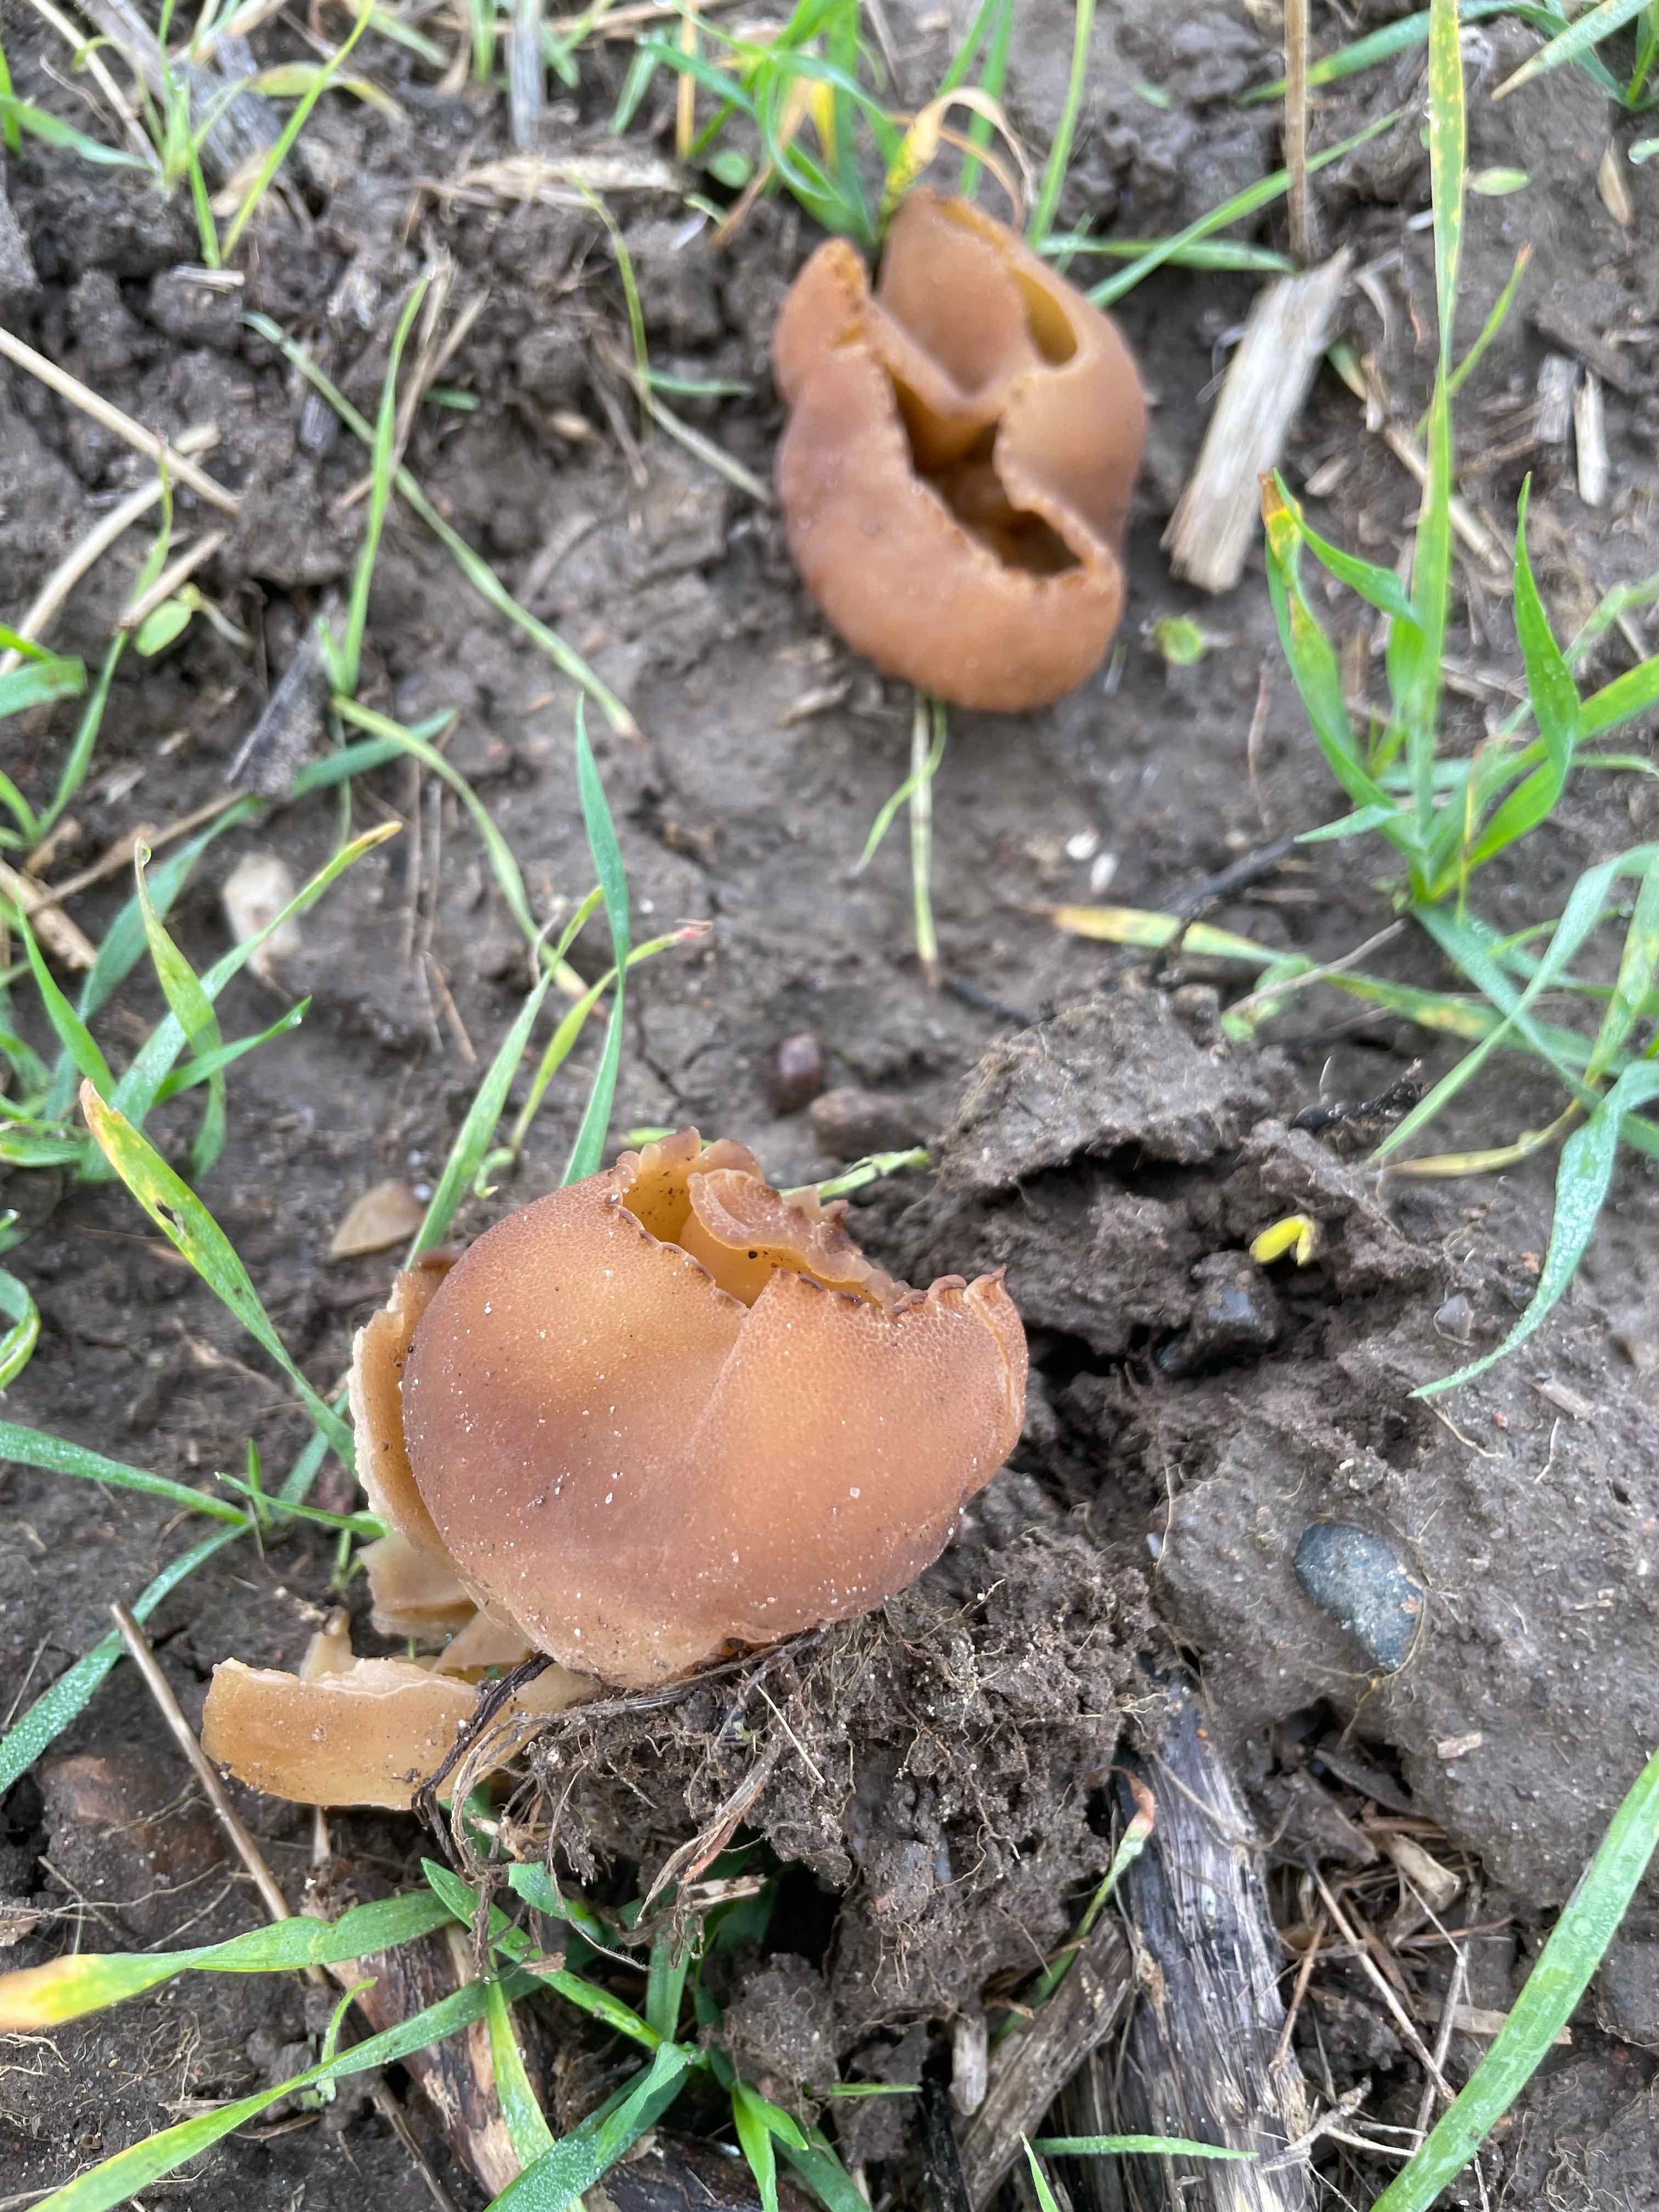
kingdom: Fungi
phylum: Ascomycota
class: Pezizomycetes
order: Pezizales
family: Pezizaceae
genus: Peziza
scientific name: Peziza vesiculosa
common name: blære-bægersvamp
